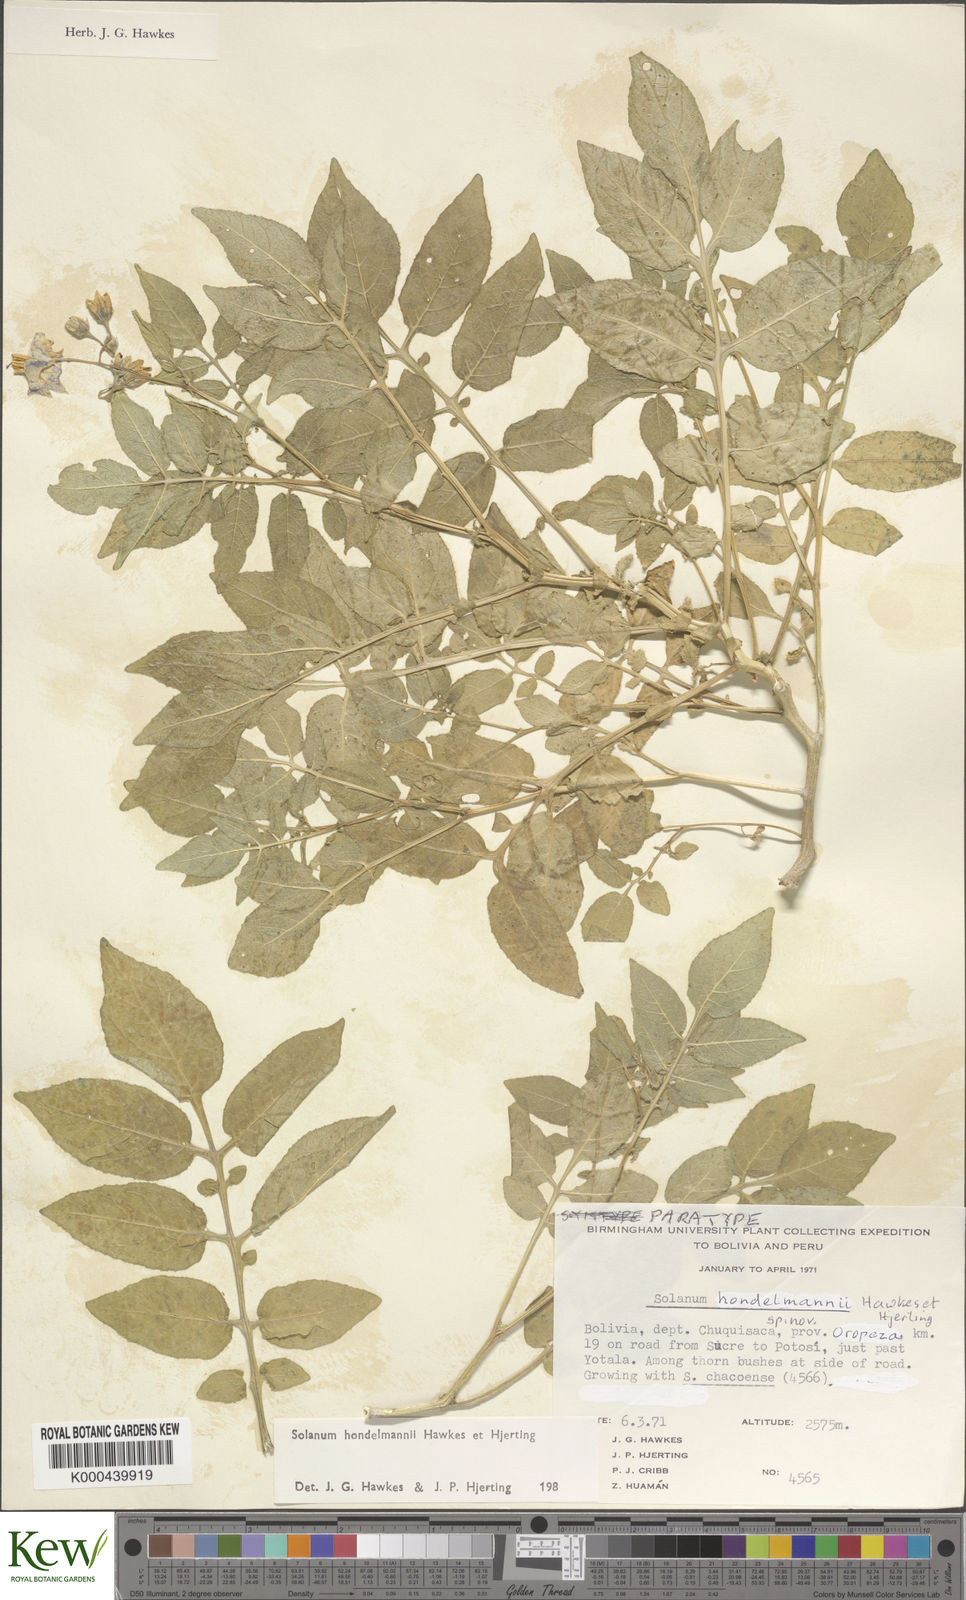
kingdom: Plantae
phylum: Tracheophyta
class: Magnoliopsida
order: Solanales
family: Solanaceae
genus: Solanum
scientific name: Solanum brevicaule
